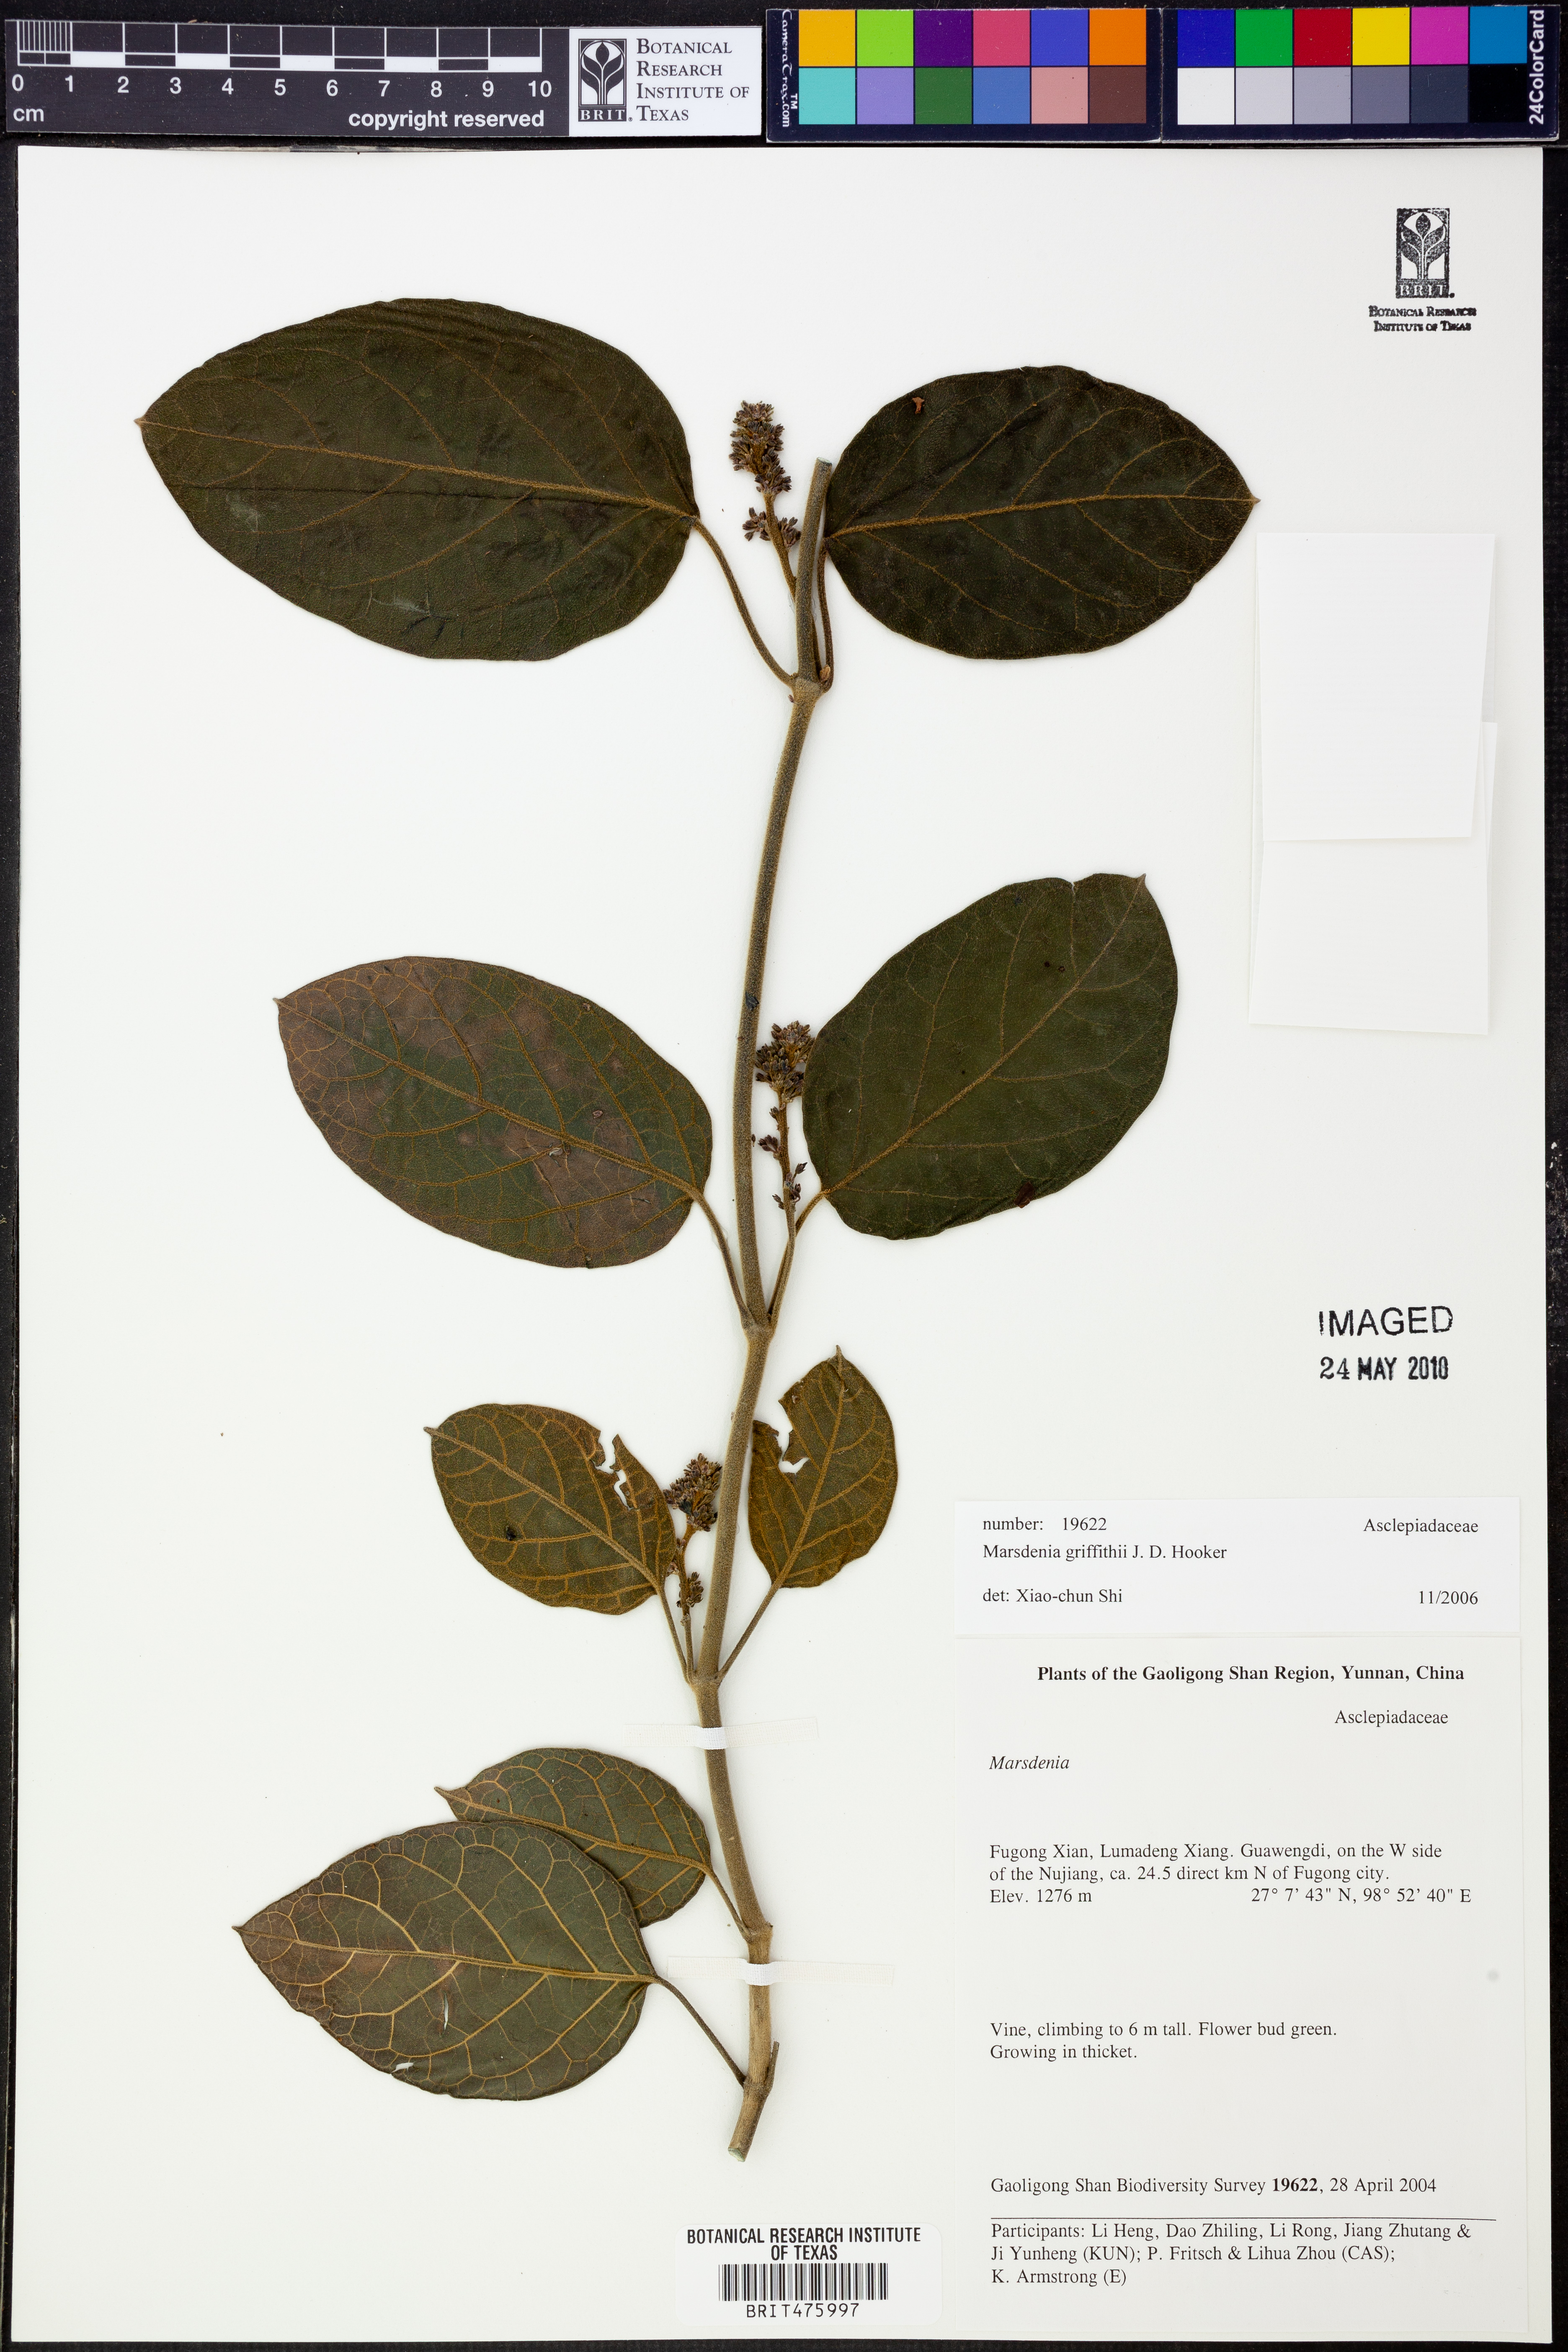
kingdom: Plantae
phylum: Tracheophyta
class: Magnoliopsida
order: Gentianales
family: Apocynaceae
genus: Sinomarsdenia
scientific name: Sinomarsdenia griffithii
